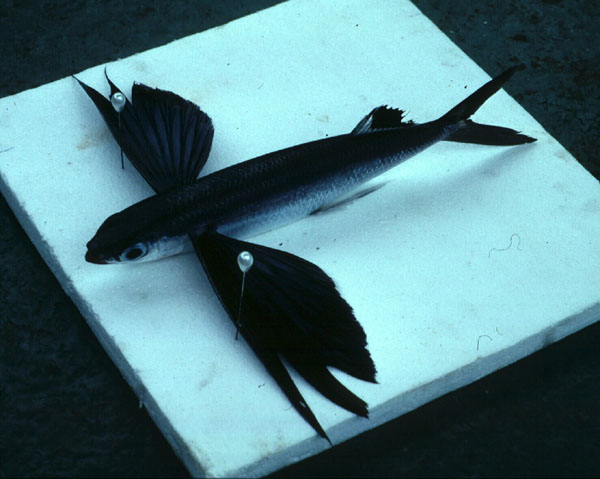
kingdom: Animalia
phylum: Chordata
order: Beloniformes
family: Exocoetidae
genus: Cheilopogon
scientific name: Cheilopogon cyanopterus
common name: Margined flyingfish
